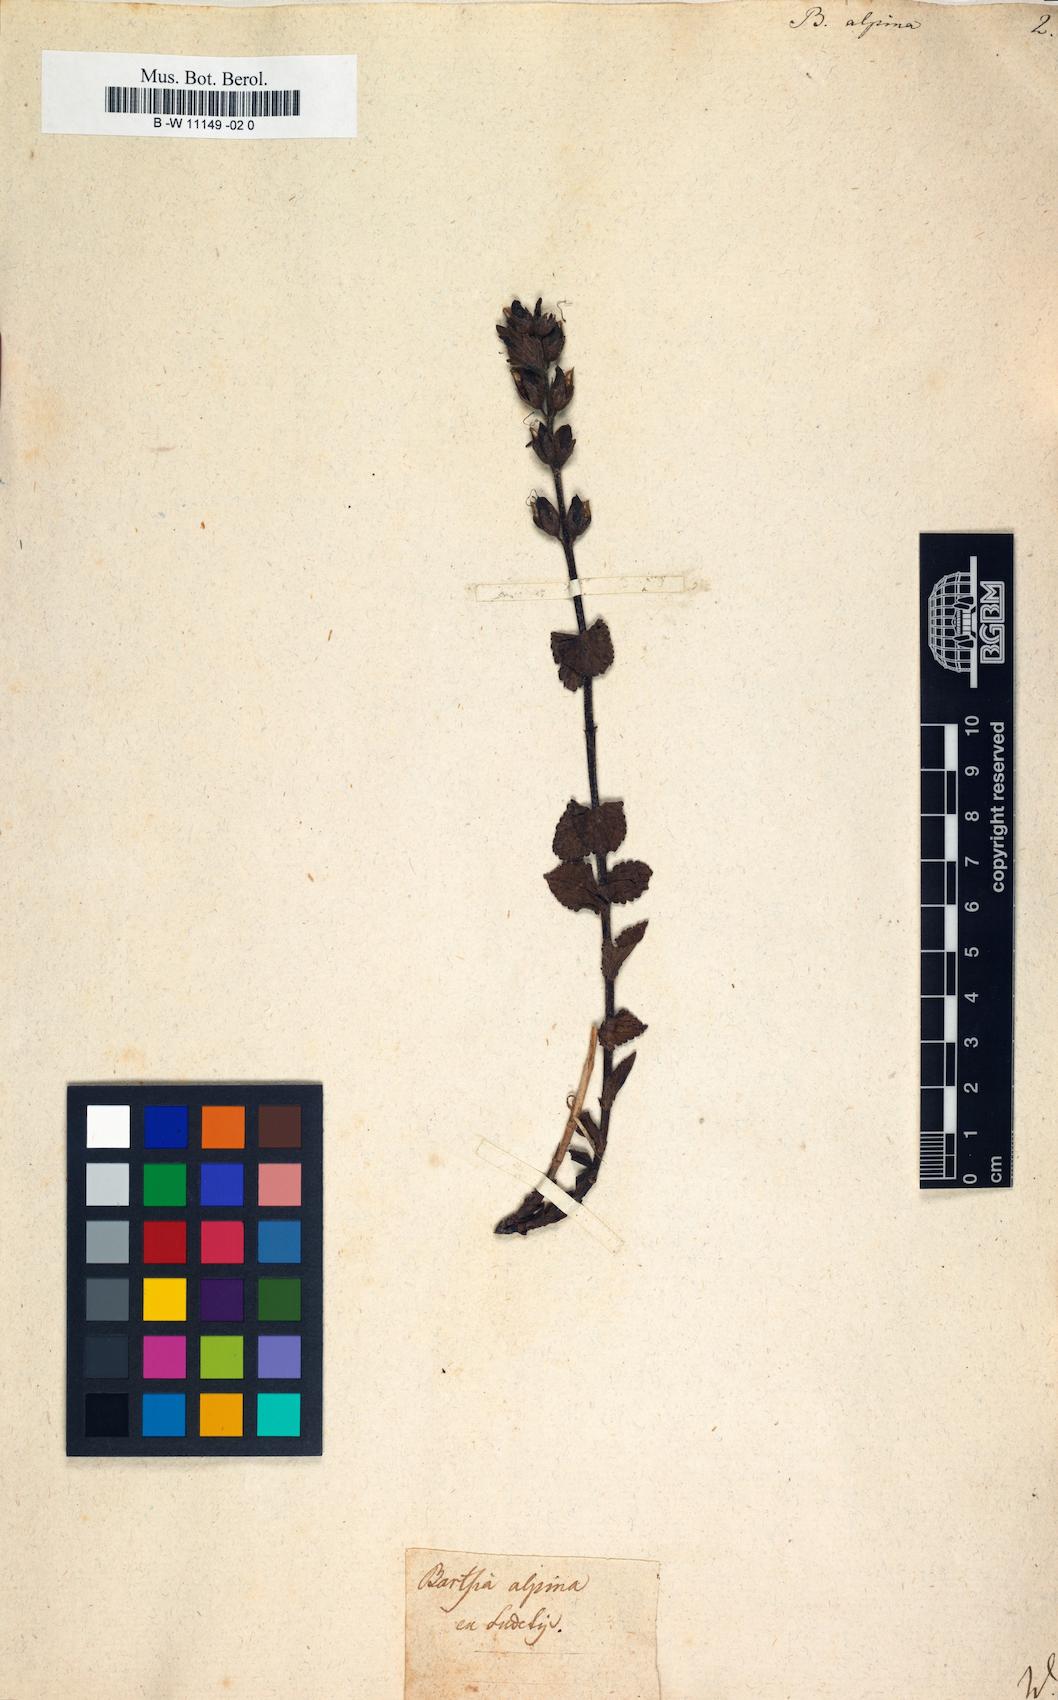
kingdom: Plantae
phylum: Tracheophyta
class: Magnoliopsida
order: Lamiales
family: Orobanchaceae
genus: Bartsia
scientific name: Bartsia alpina
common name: Alpine bartsia
